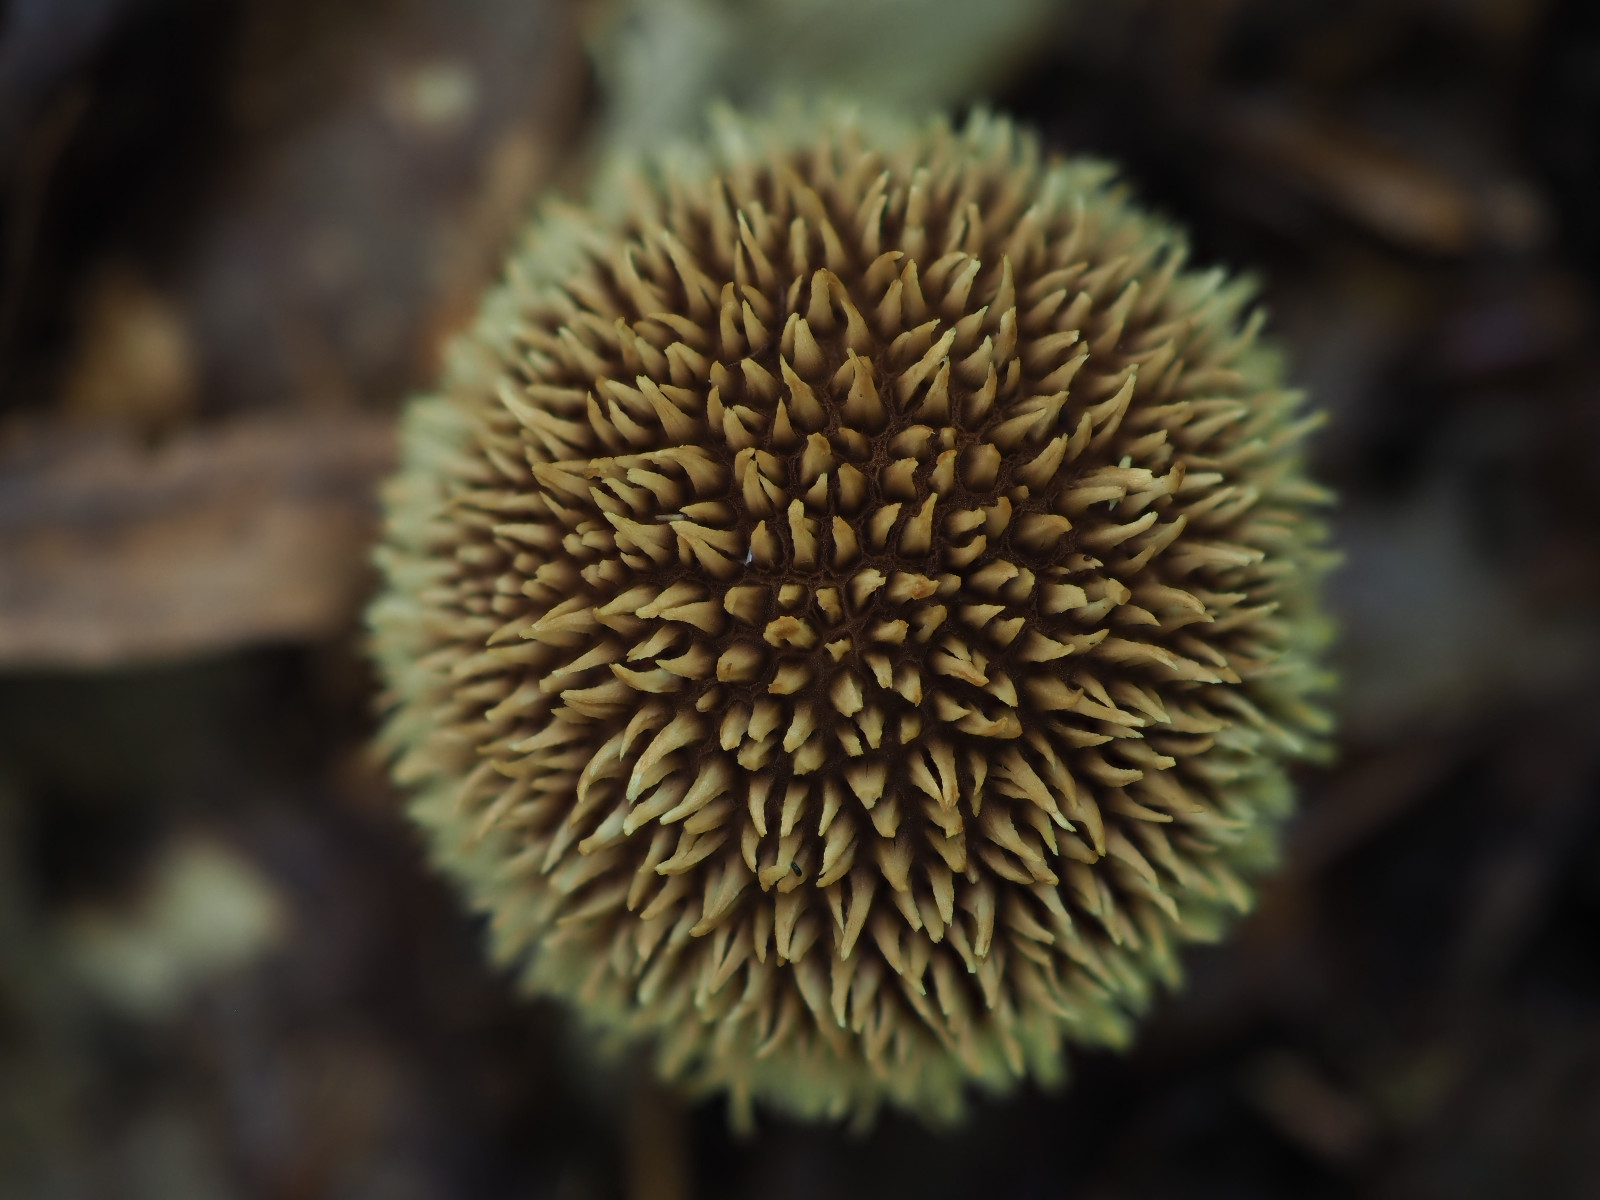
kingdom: Fungi
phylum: Basidiomycota
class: Agaricomycetes
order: Agaricales
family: Lycoperdaceae
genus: Lycoperdon
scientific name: Lycoperdon echinatum
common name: pindsvine-støvbold
